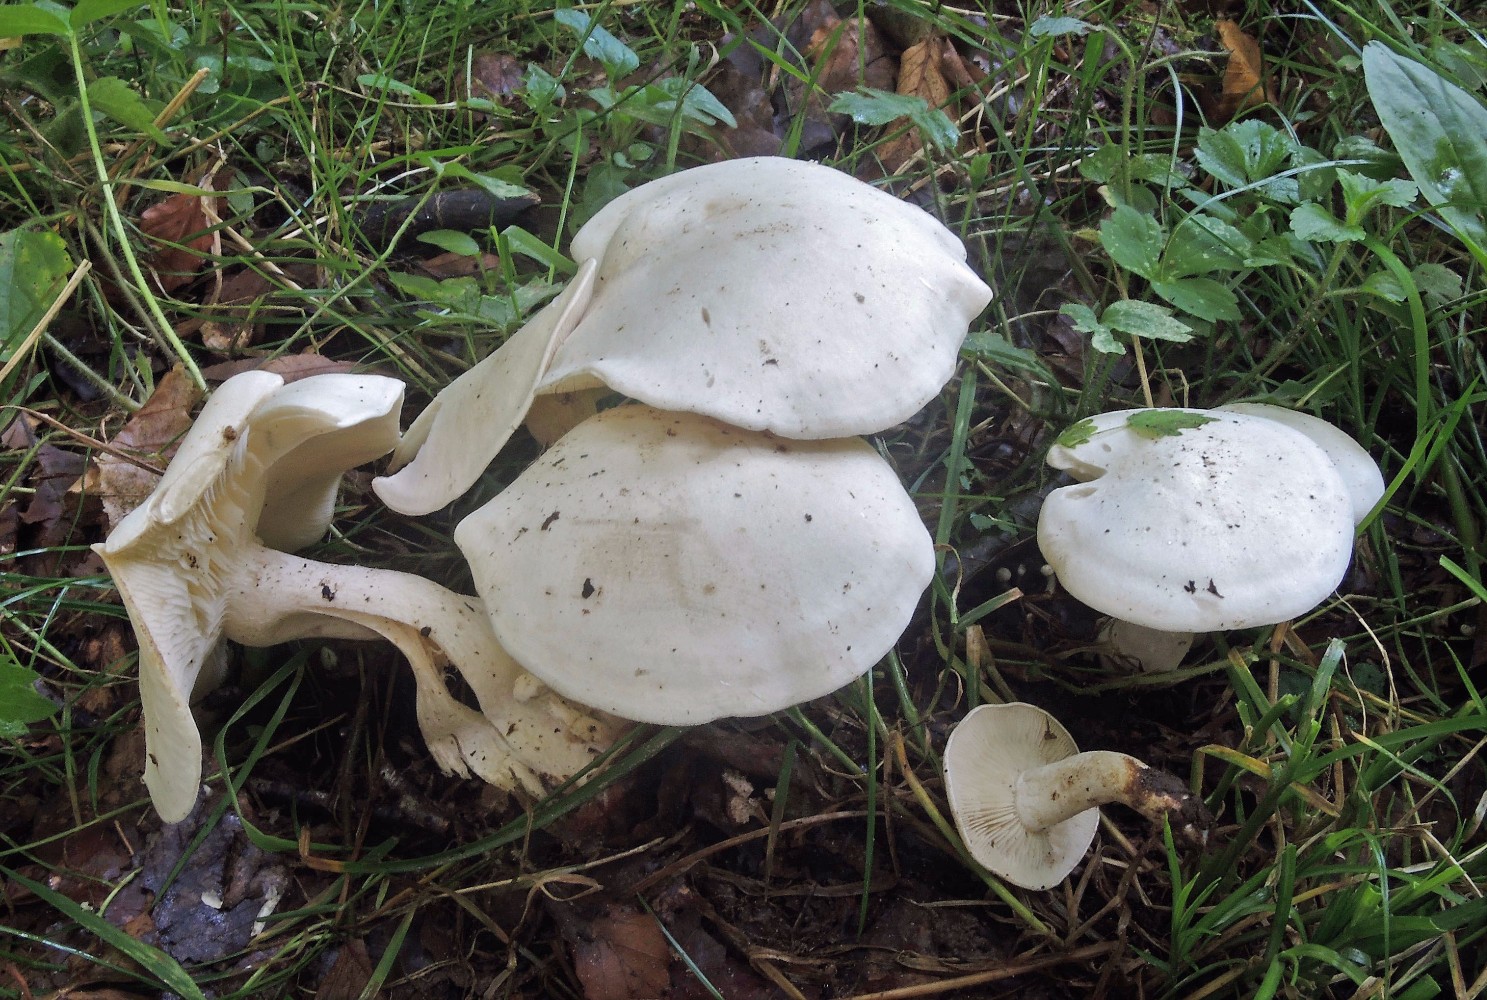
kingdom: Fungi
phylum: Basidiomycota
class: Agaricomycetes
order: Agaricales
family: Tricholomataceae
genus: Leucocybe
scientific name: Leucocybe connata
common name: knippe-tragthat
